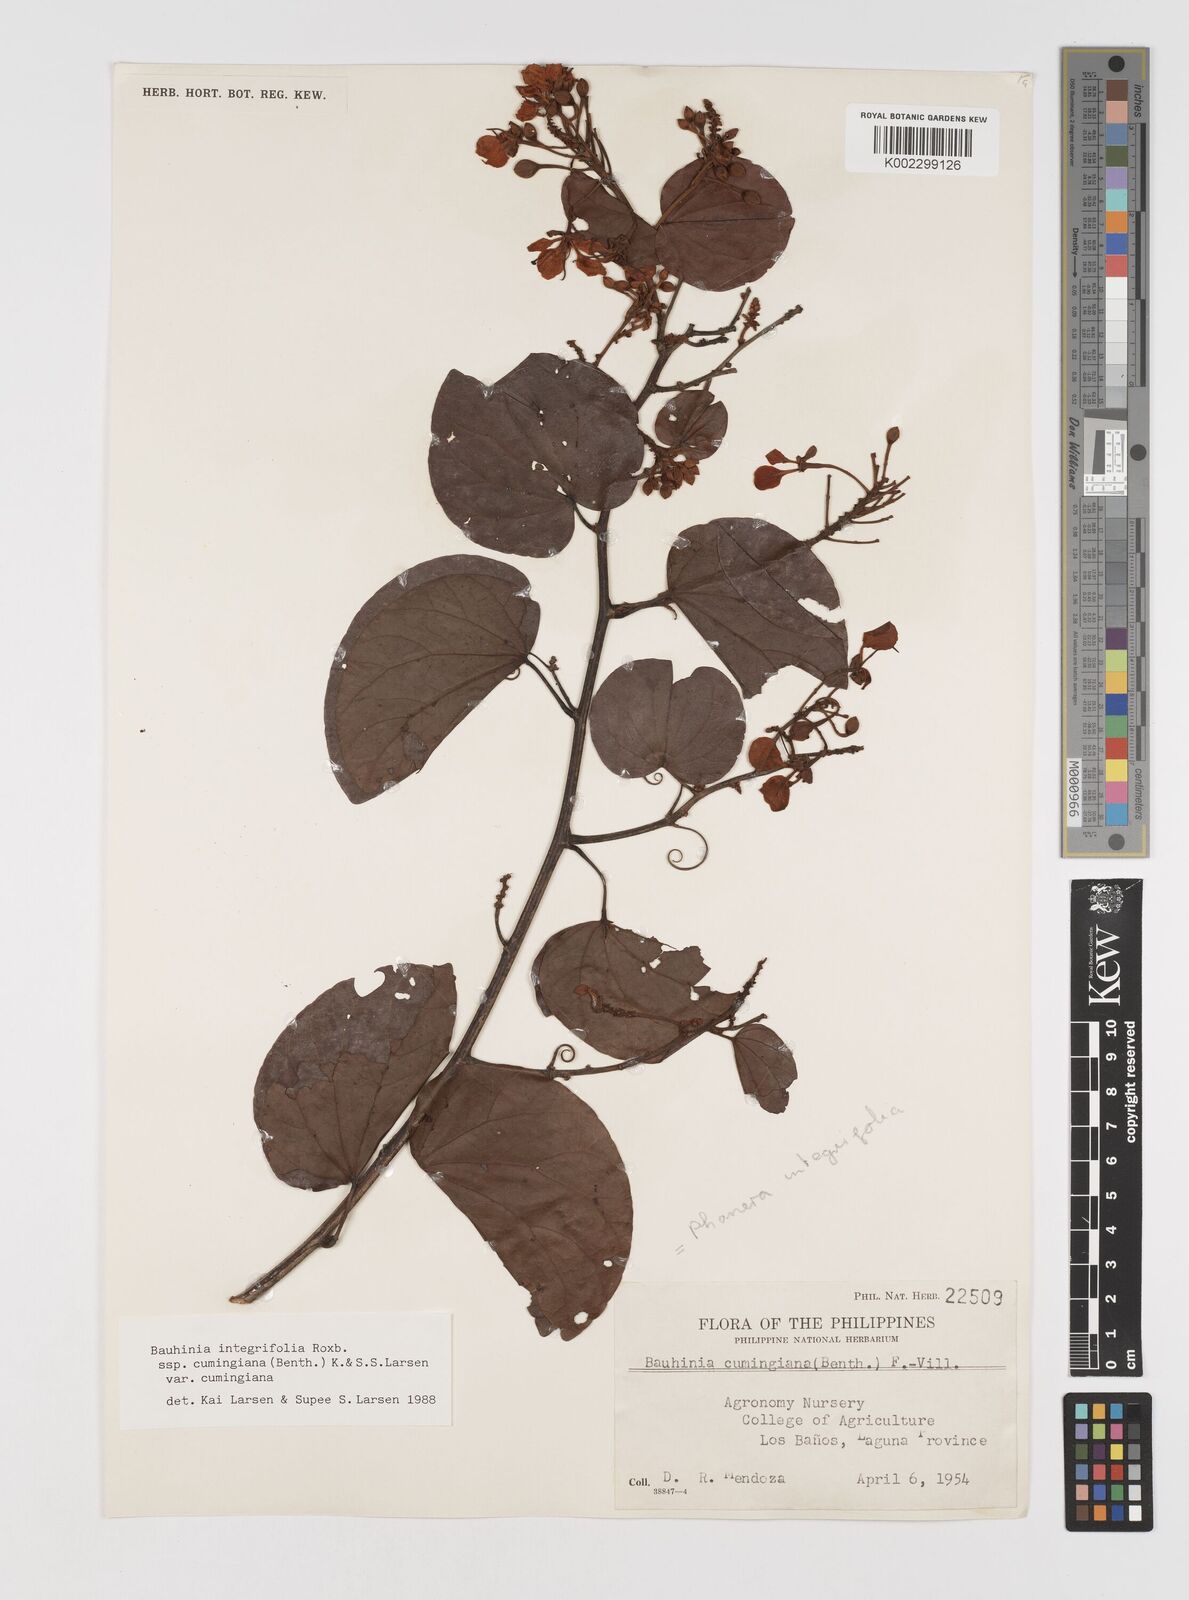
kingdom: Plantae
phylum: Tracheophyta
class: Magnoliopsida
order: Fabales
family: Fabaceae
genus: Phanera
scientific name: Phanera integrifolia
